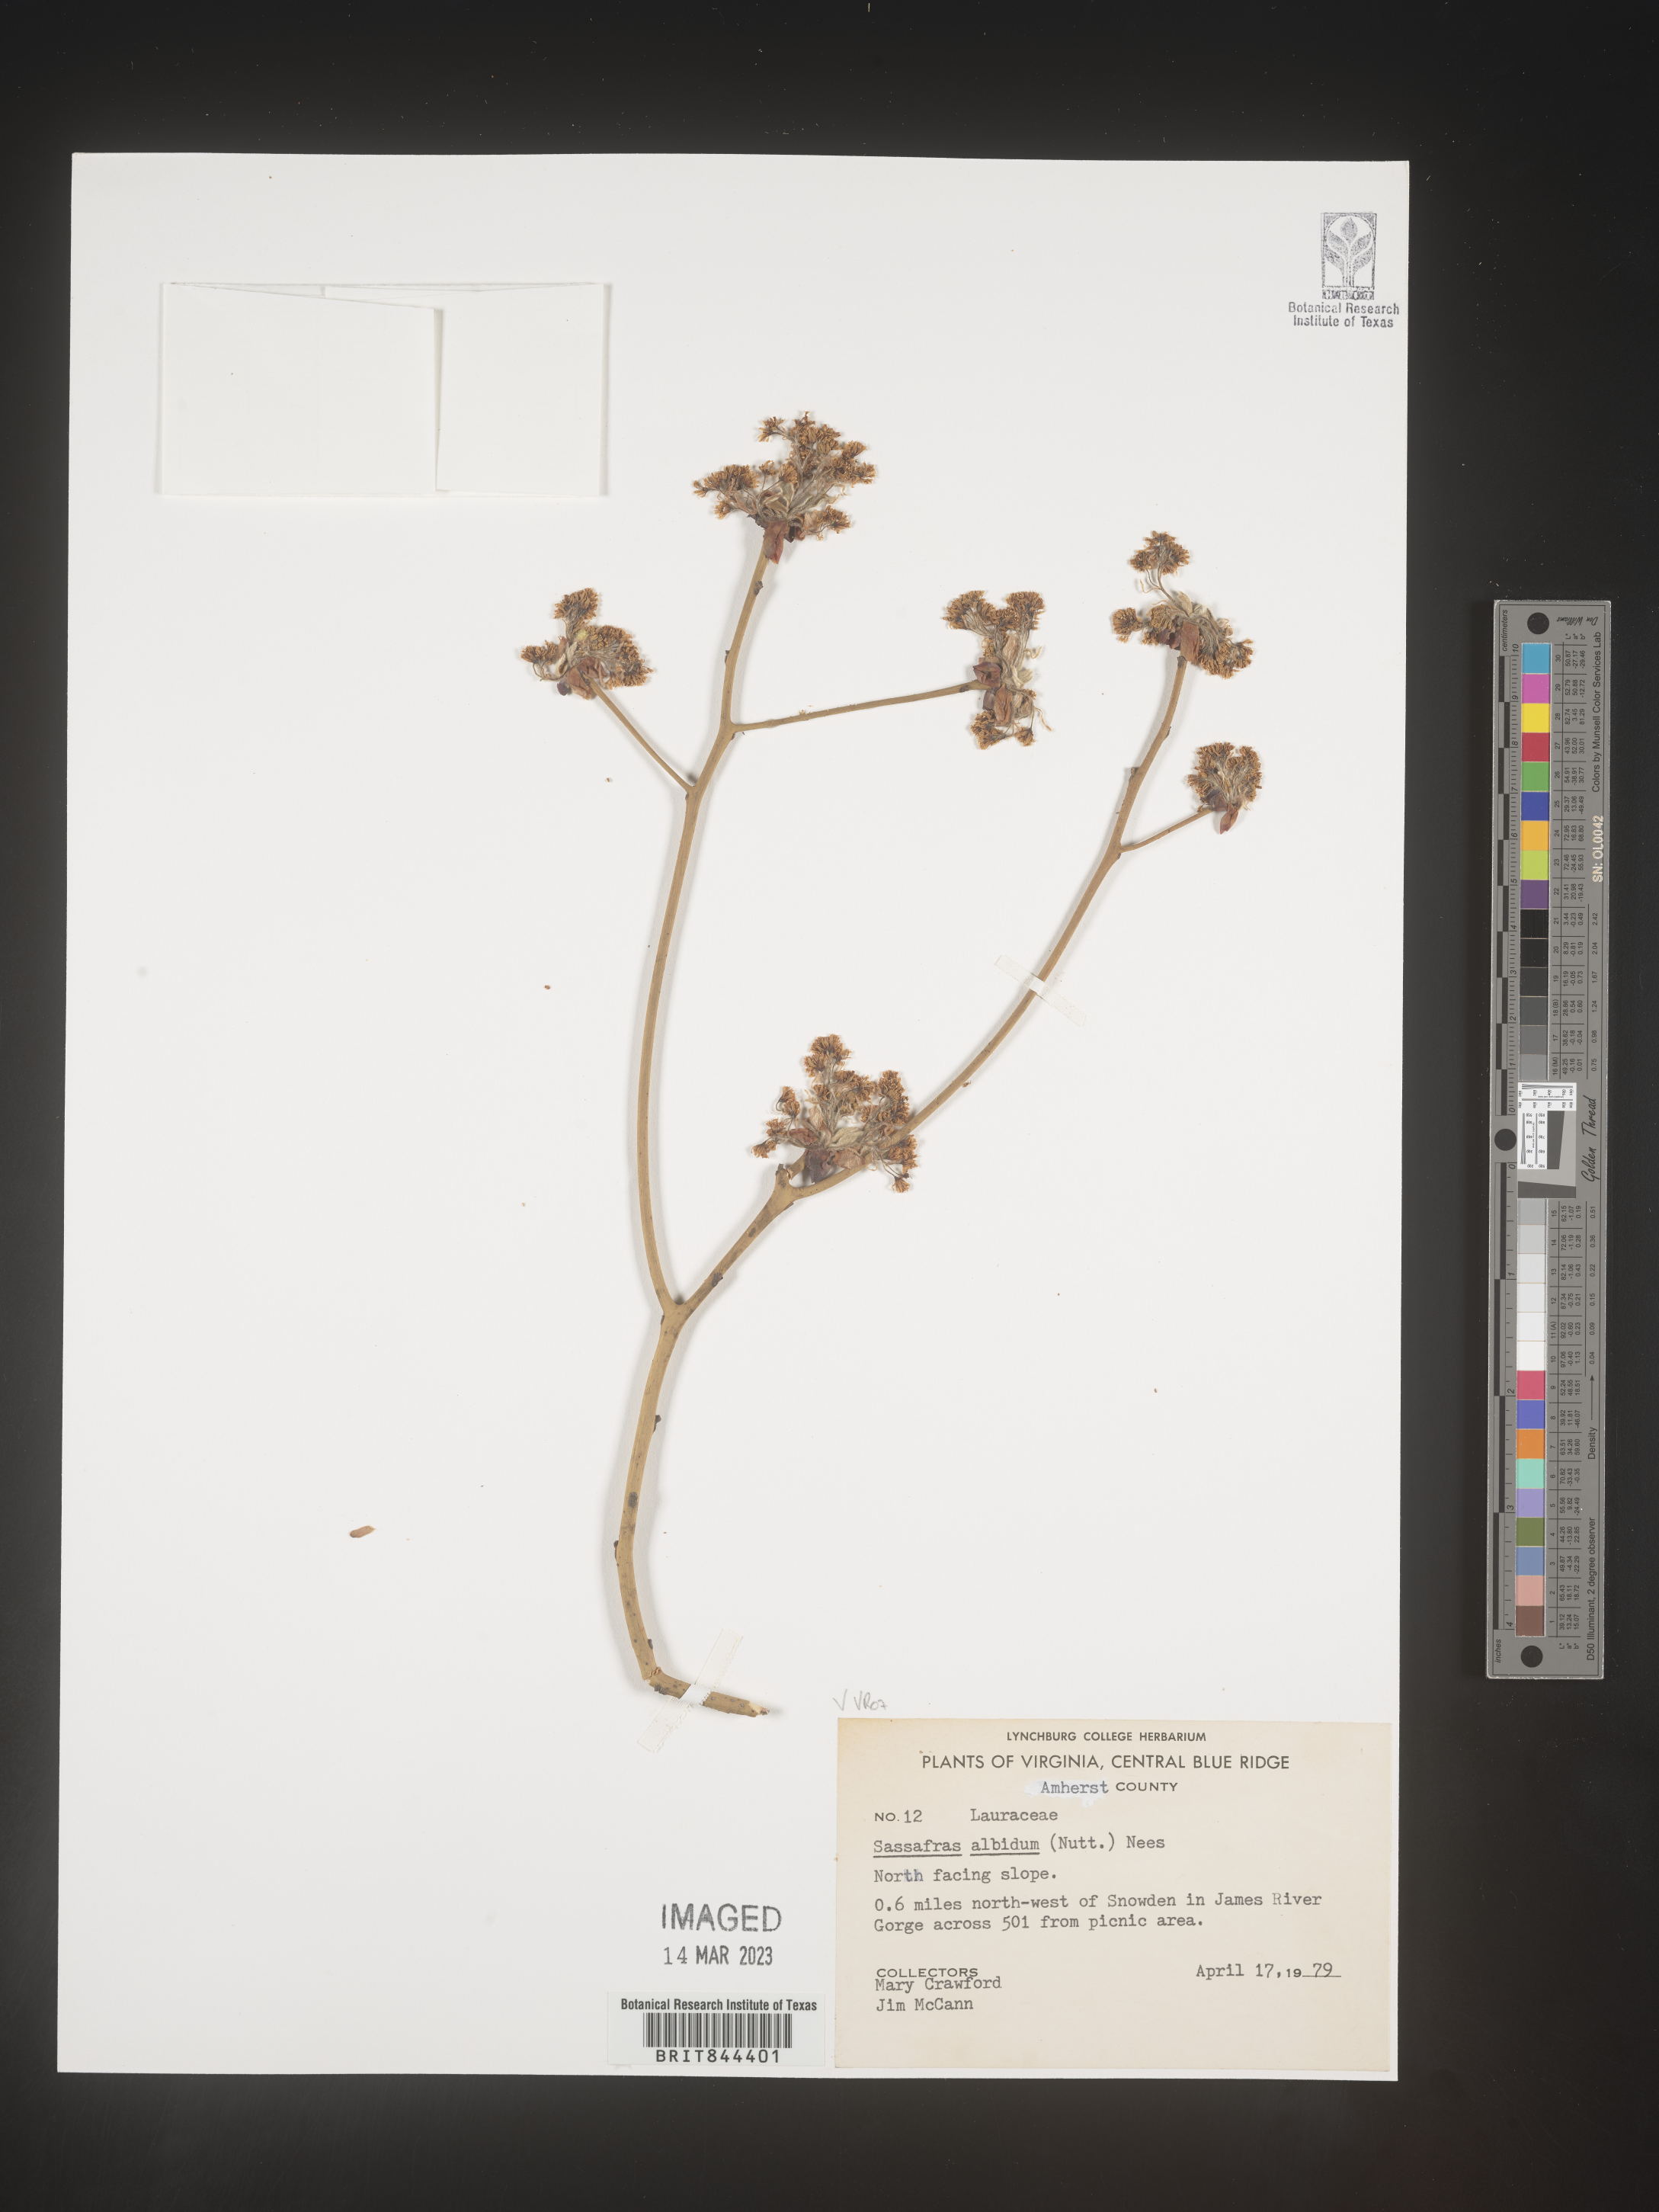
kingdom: Plantae
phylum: Tracheophyta
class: Magnoliopsida
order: Laurales
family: Lauraceae
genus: Sassafras
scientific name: Sassafras albidum
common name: Sassafras
